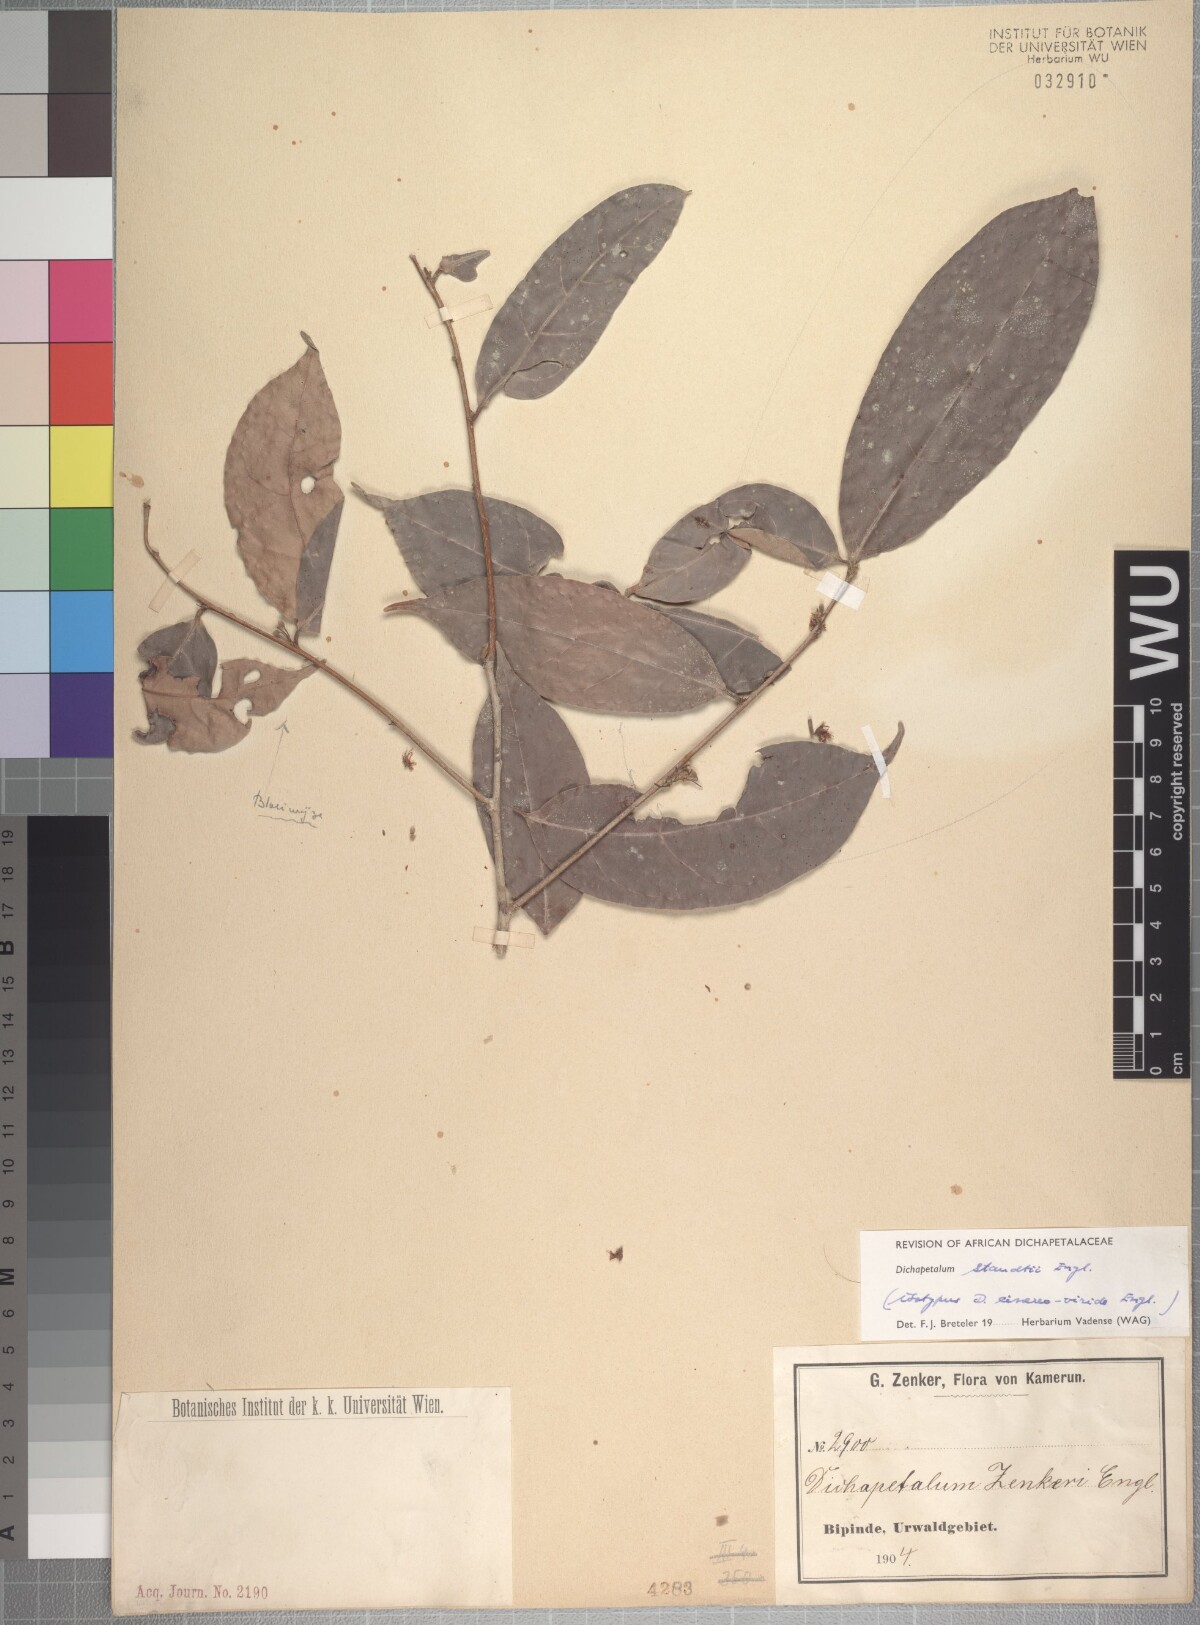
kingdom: Plantae
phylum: Tracheophyta
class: Magnoliopsida
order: Malpighiales
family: Dichapetalaceae
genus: Dichapetalum
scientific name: Dichapetalum staudtii
